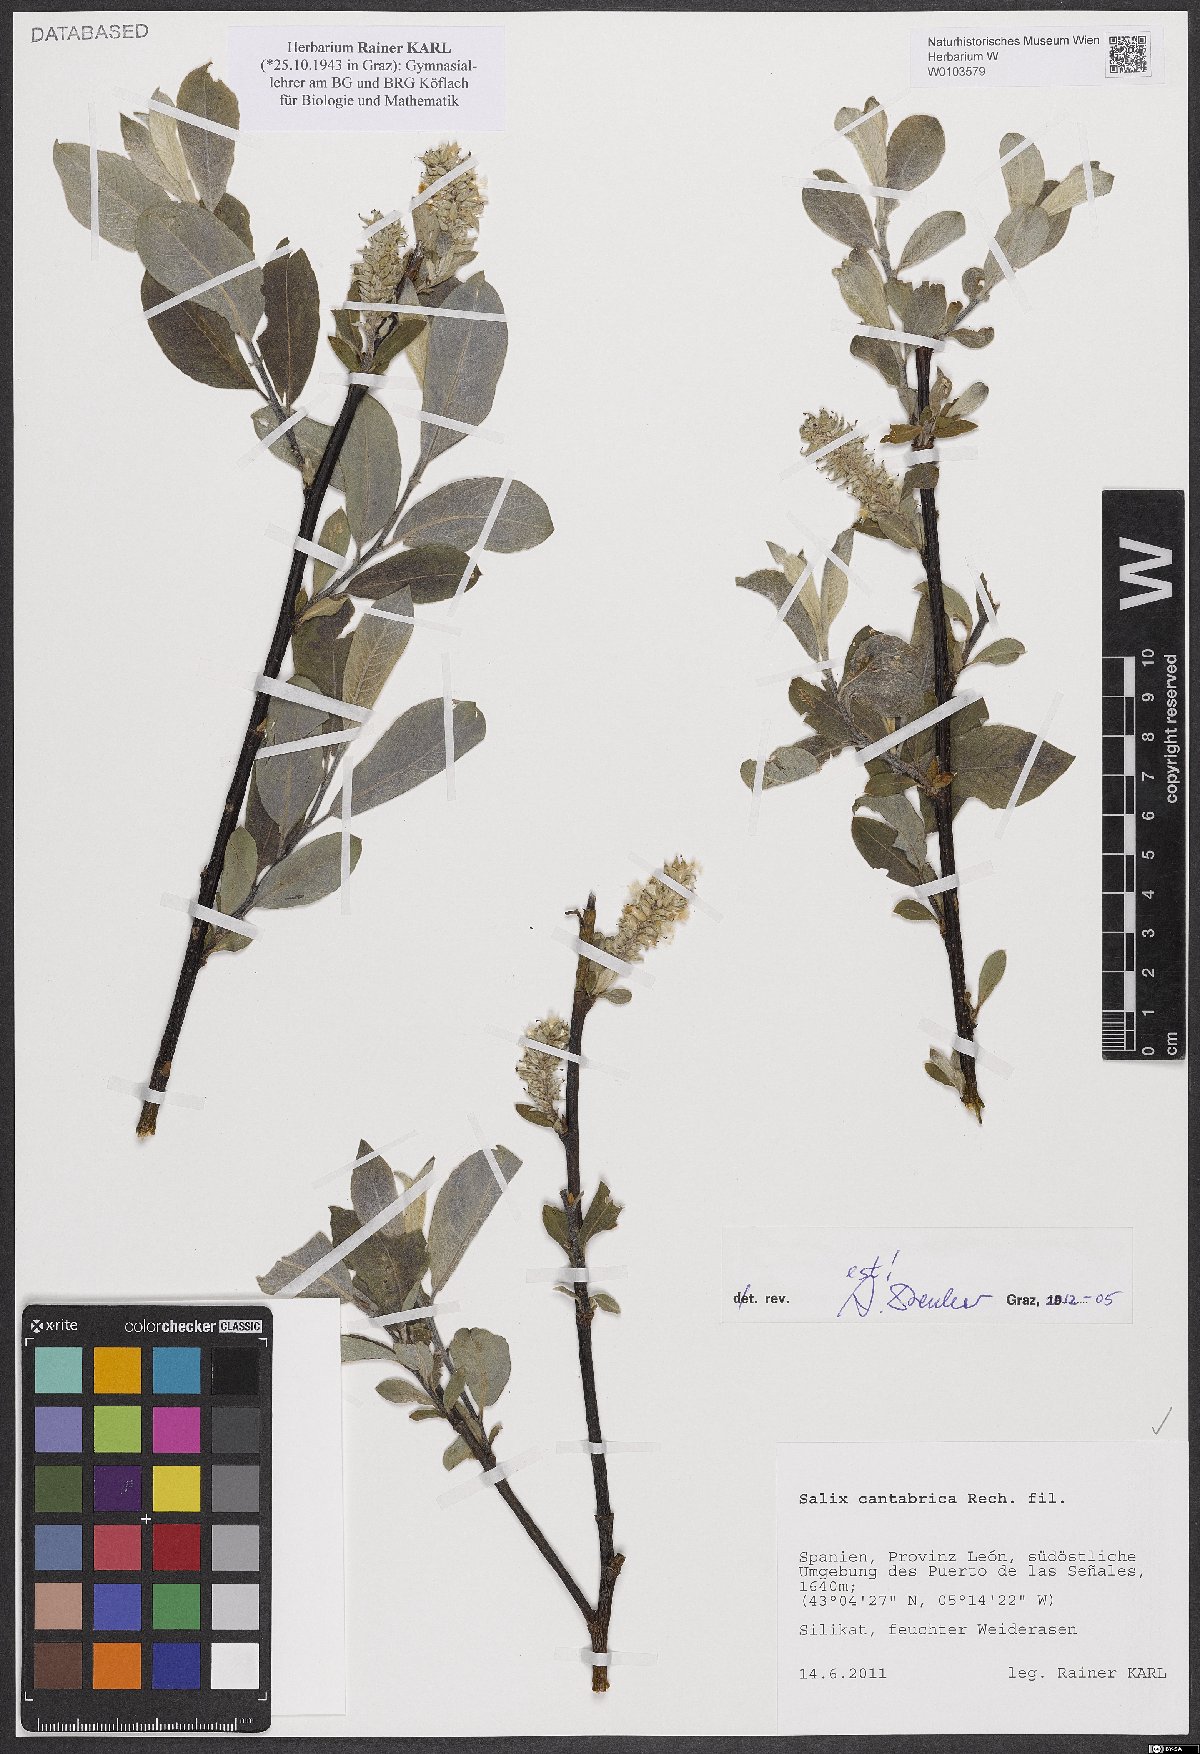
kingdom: Plantae
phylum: Tracheophyta
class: Magnoliopsida
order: Malpighiales
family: Salicaceae
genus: Salix
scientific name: Salix cantabrica
